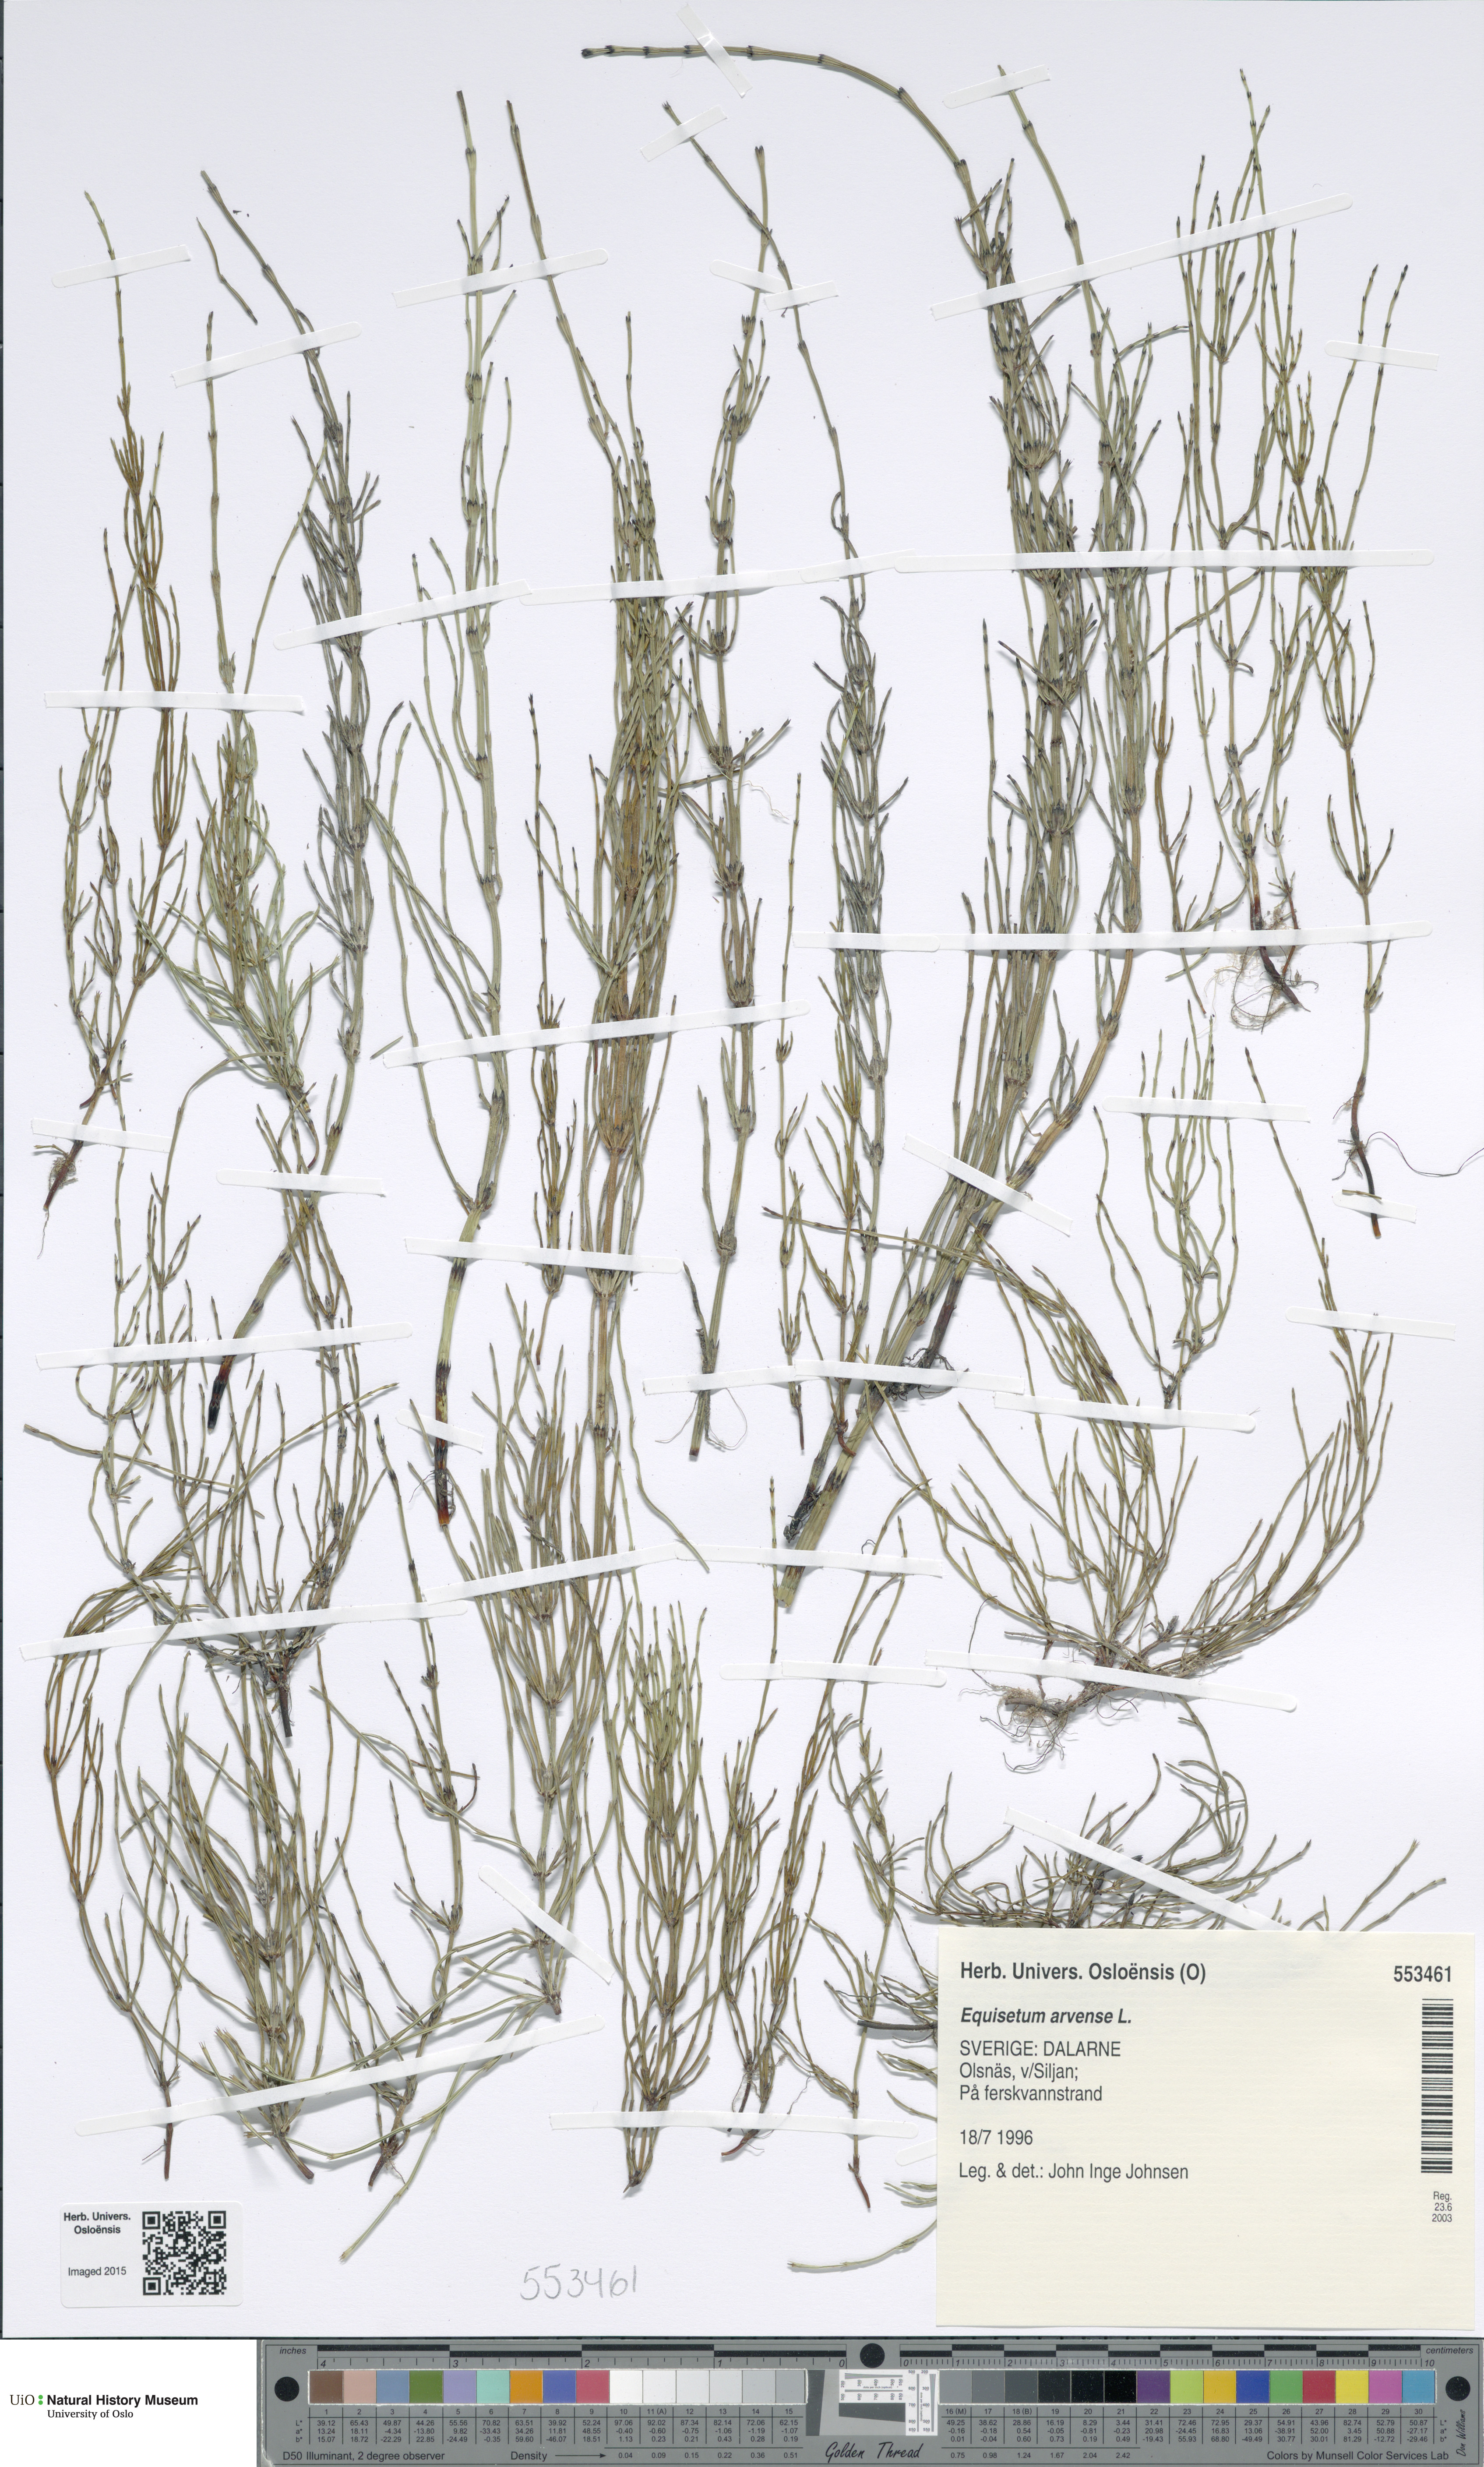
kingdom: Plantae
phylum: Tracheophyta
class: Polypodiopsida
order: Equisetales
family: Equisetaceae
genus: Equisetum
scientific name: Equisetum arvense
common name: Field horsetail
